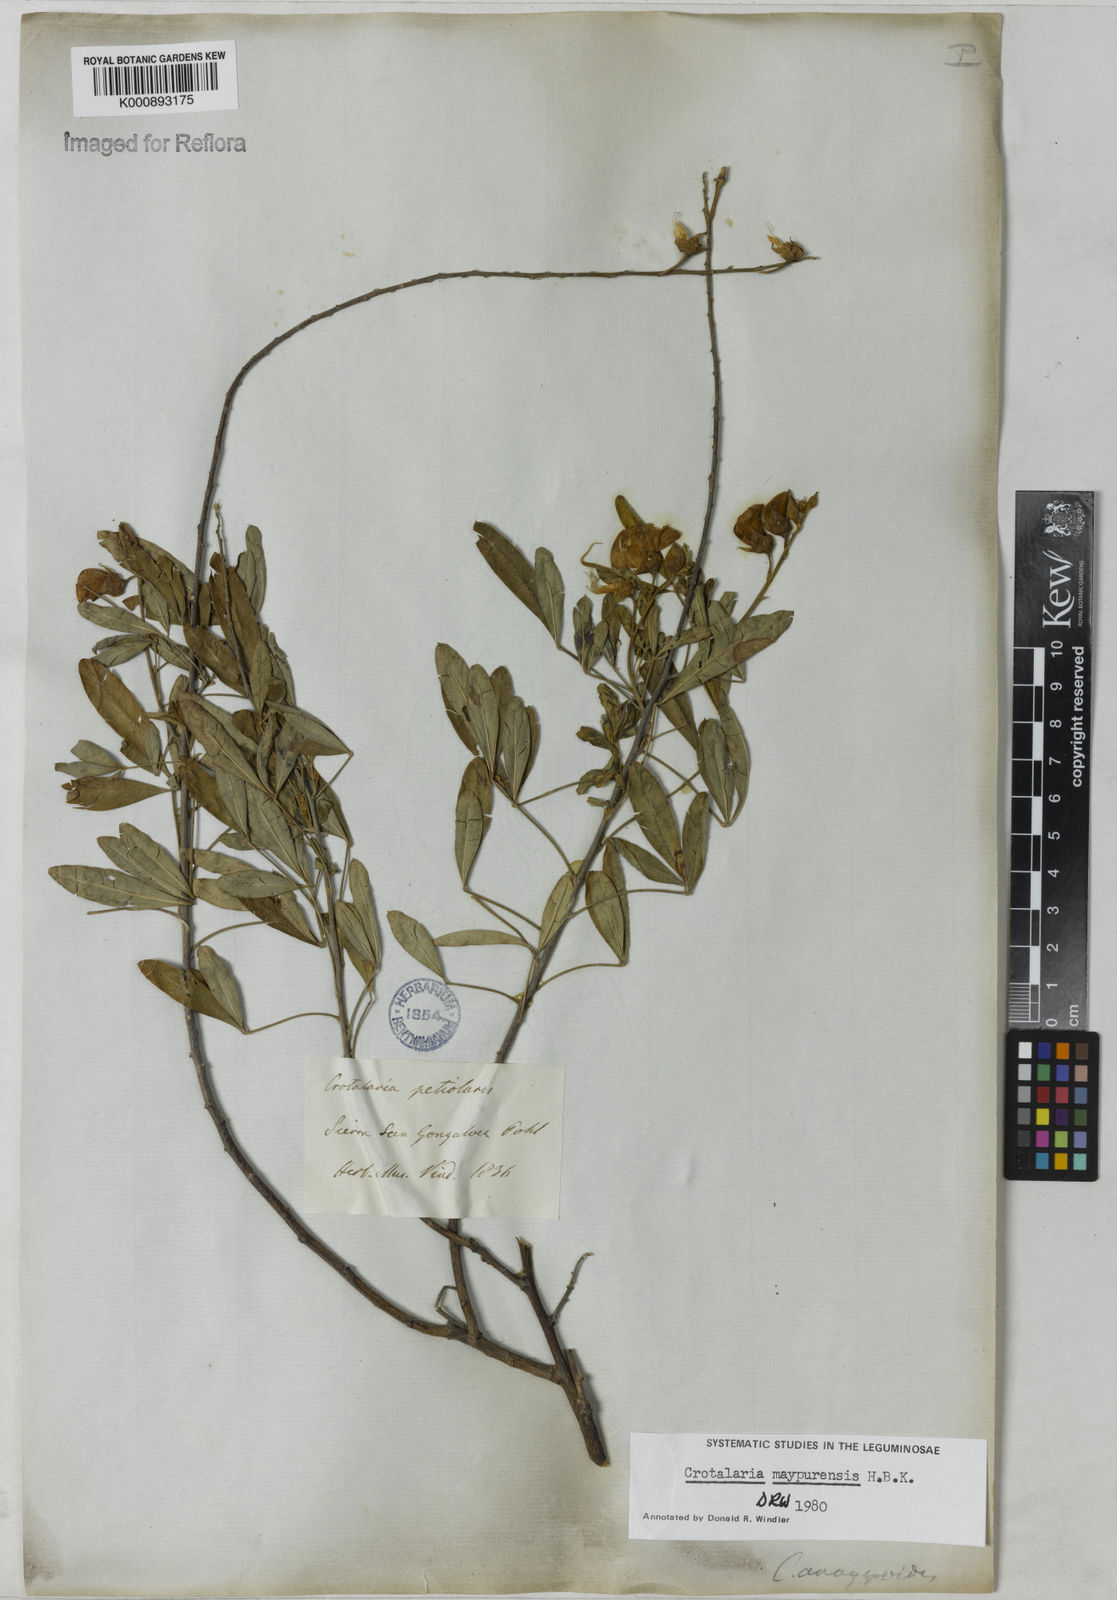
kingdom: Plantae
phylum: Tracheophyta
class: Magnoliopsida
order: Fabales
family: Fabaceae
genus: Crotalaria
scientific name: Crotalaria maypurensis
